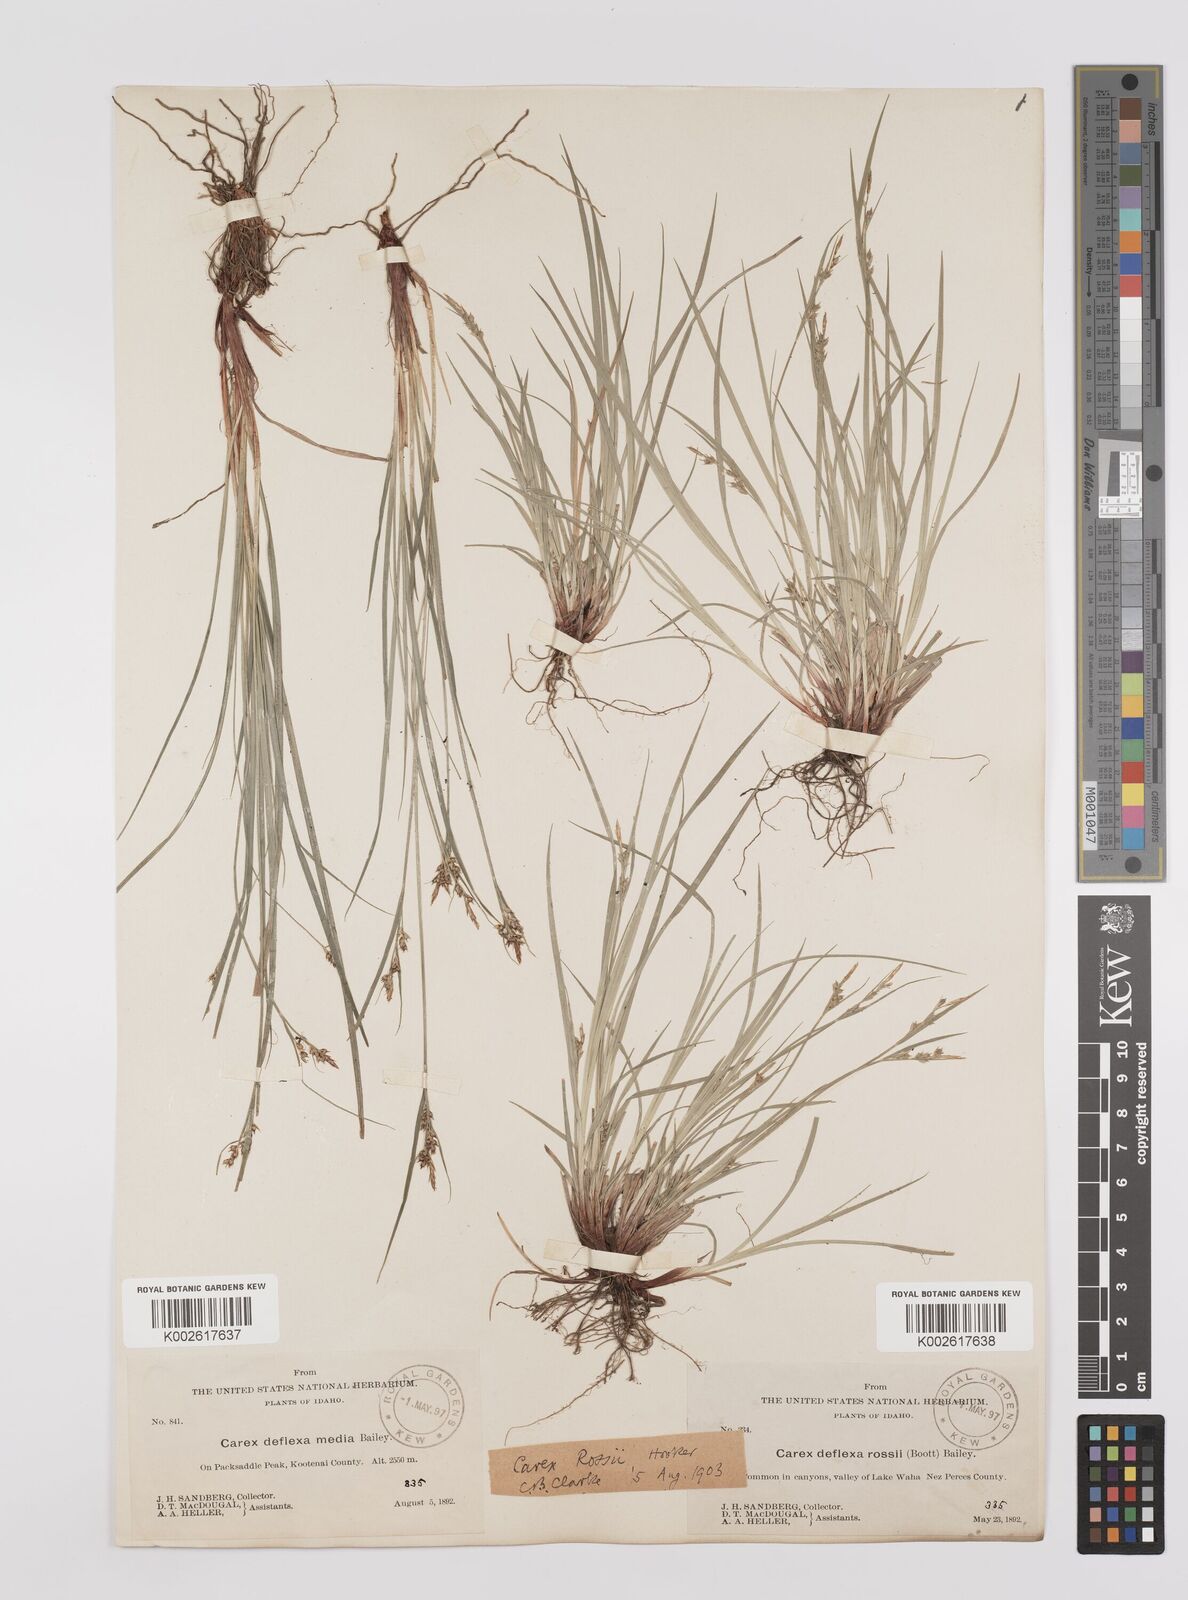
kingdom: Plantae
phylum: Tracheophyta
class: Liliopsida
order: Poales
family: Cyperaceae
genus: Carex
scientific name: Carex rossii
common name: Ross' sedge
